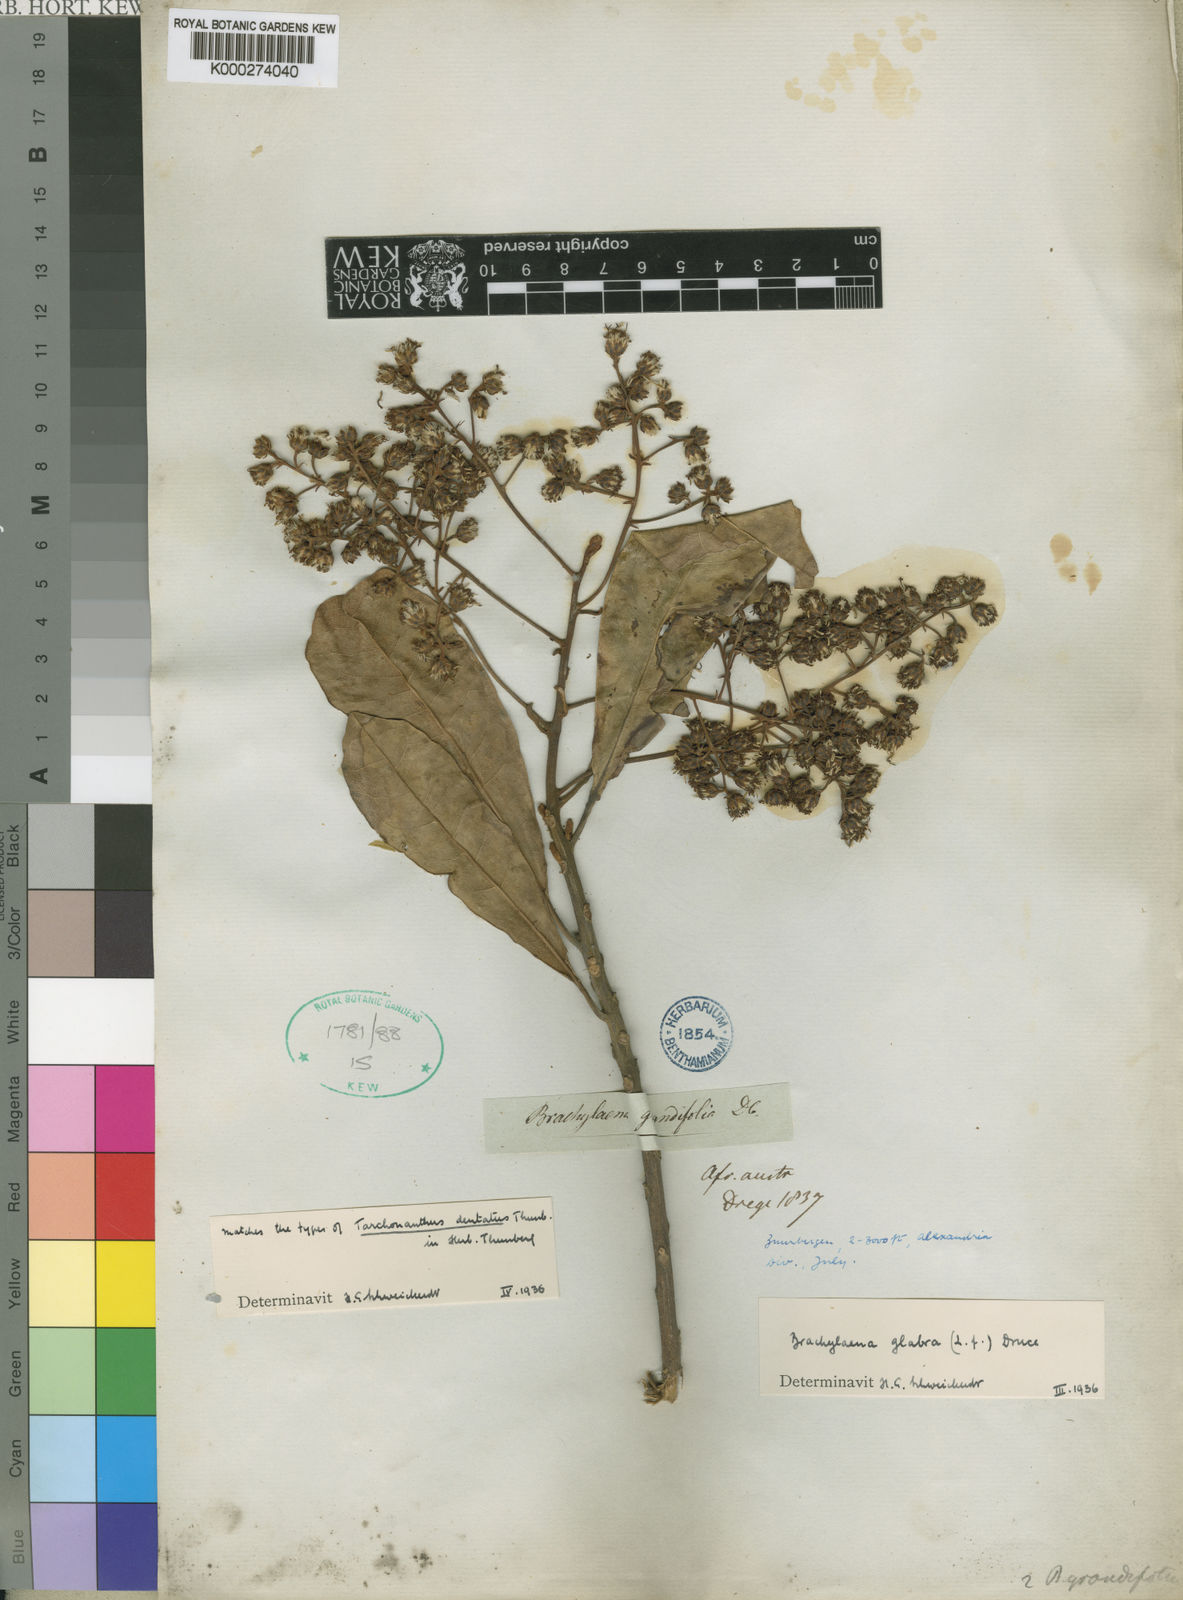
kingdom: Plantae
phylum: Tracheophyta
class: Magnoliopsida
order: Asterales
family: Asteraceae
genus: Brachylaena
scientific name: Brachylaena glabra
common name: Malabar silver-oak
